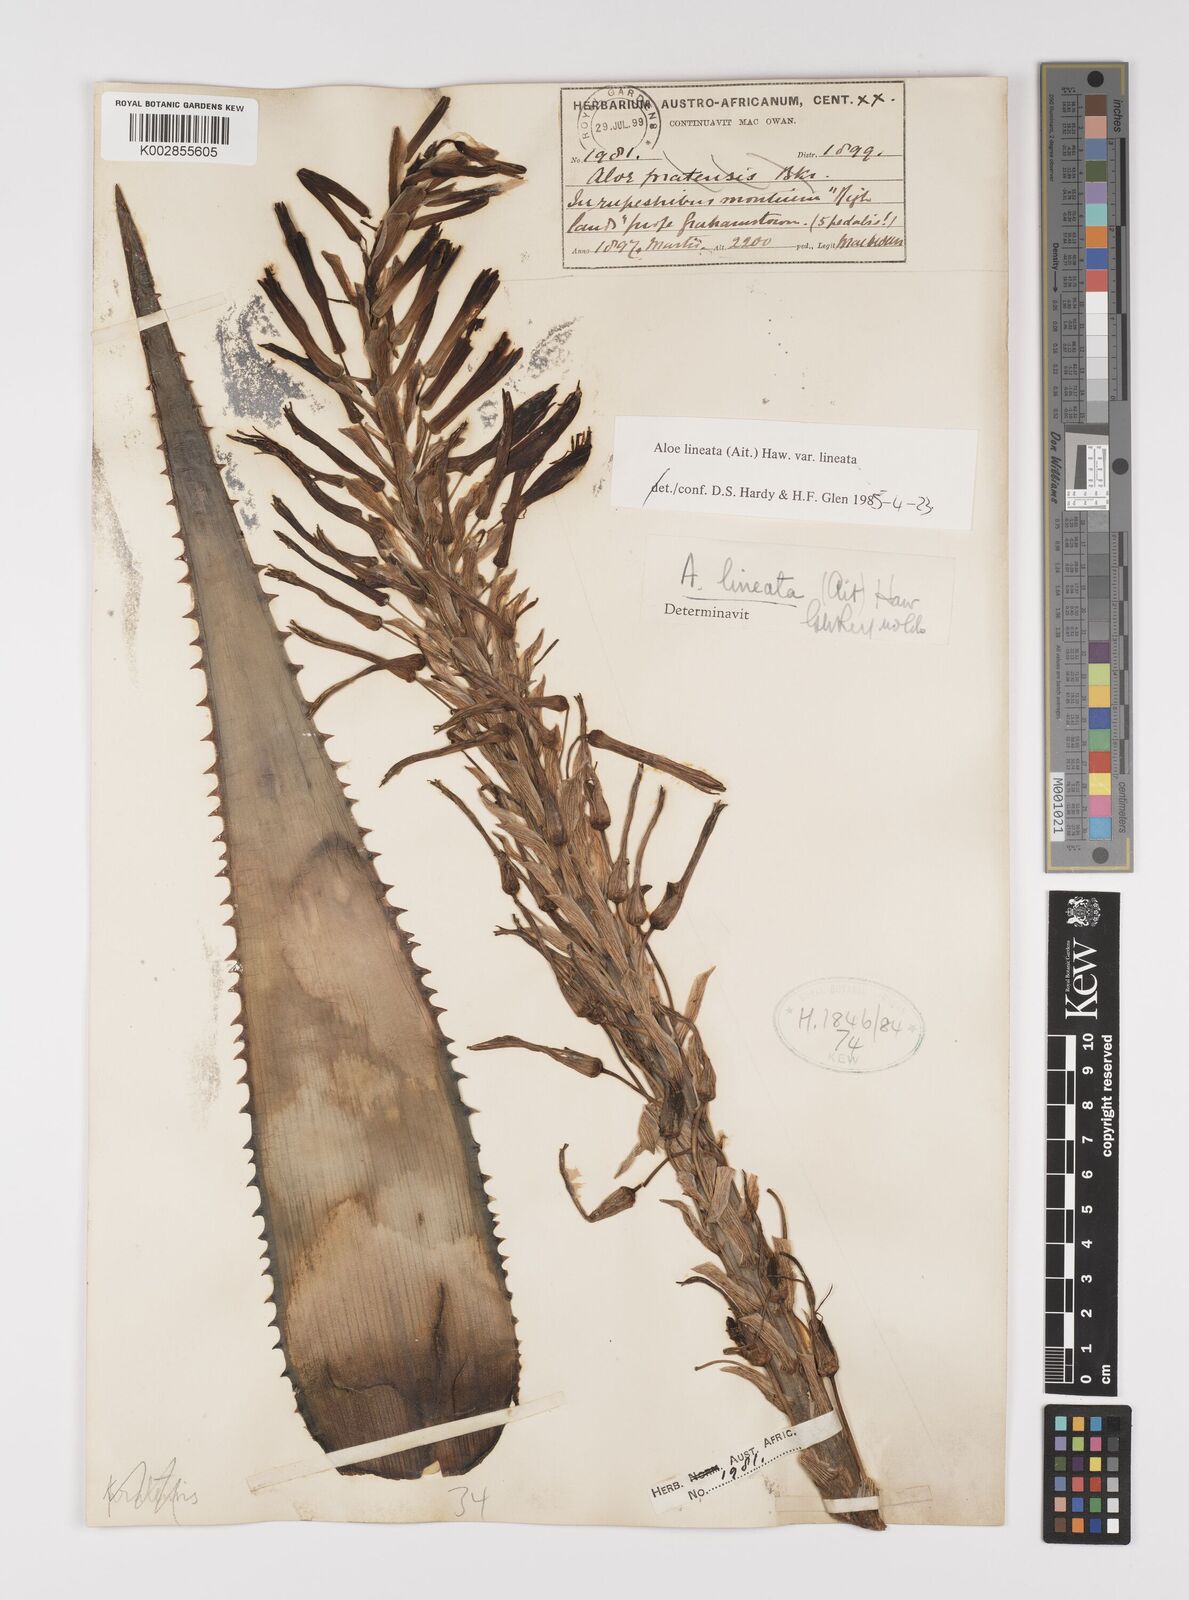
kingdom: Plantae
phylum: Tracheophyta
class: Liliopsida
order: Asparagales
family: Asphodelaceae
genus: Aloe
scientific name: Aloe lineata
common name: Lined red-spined aloe
